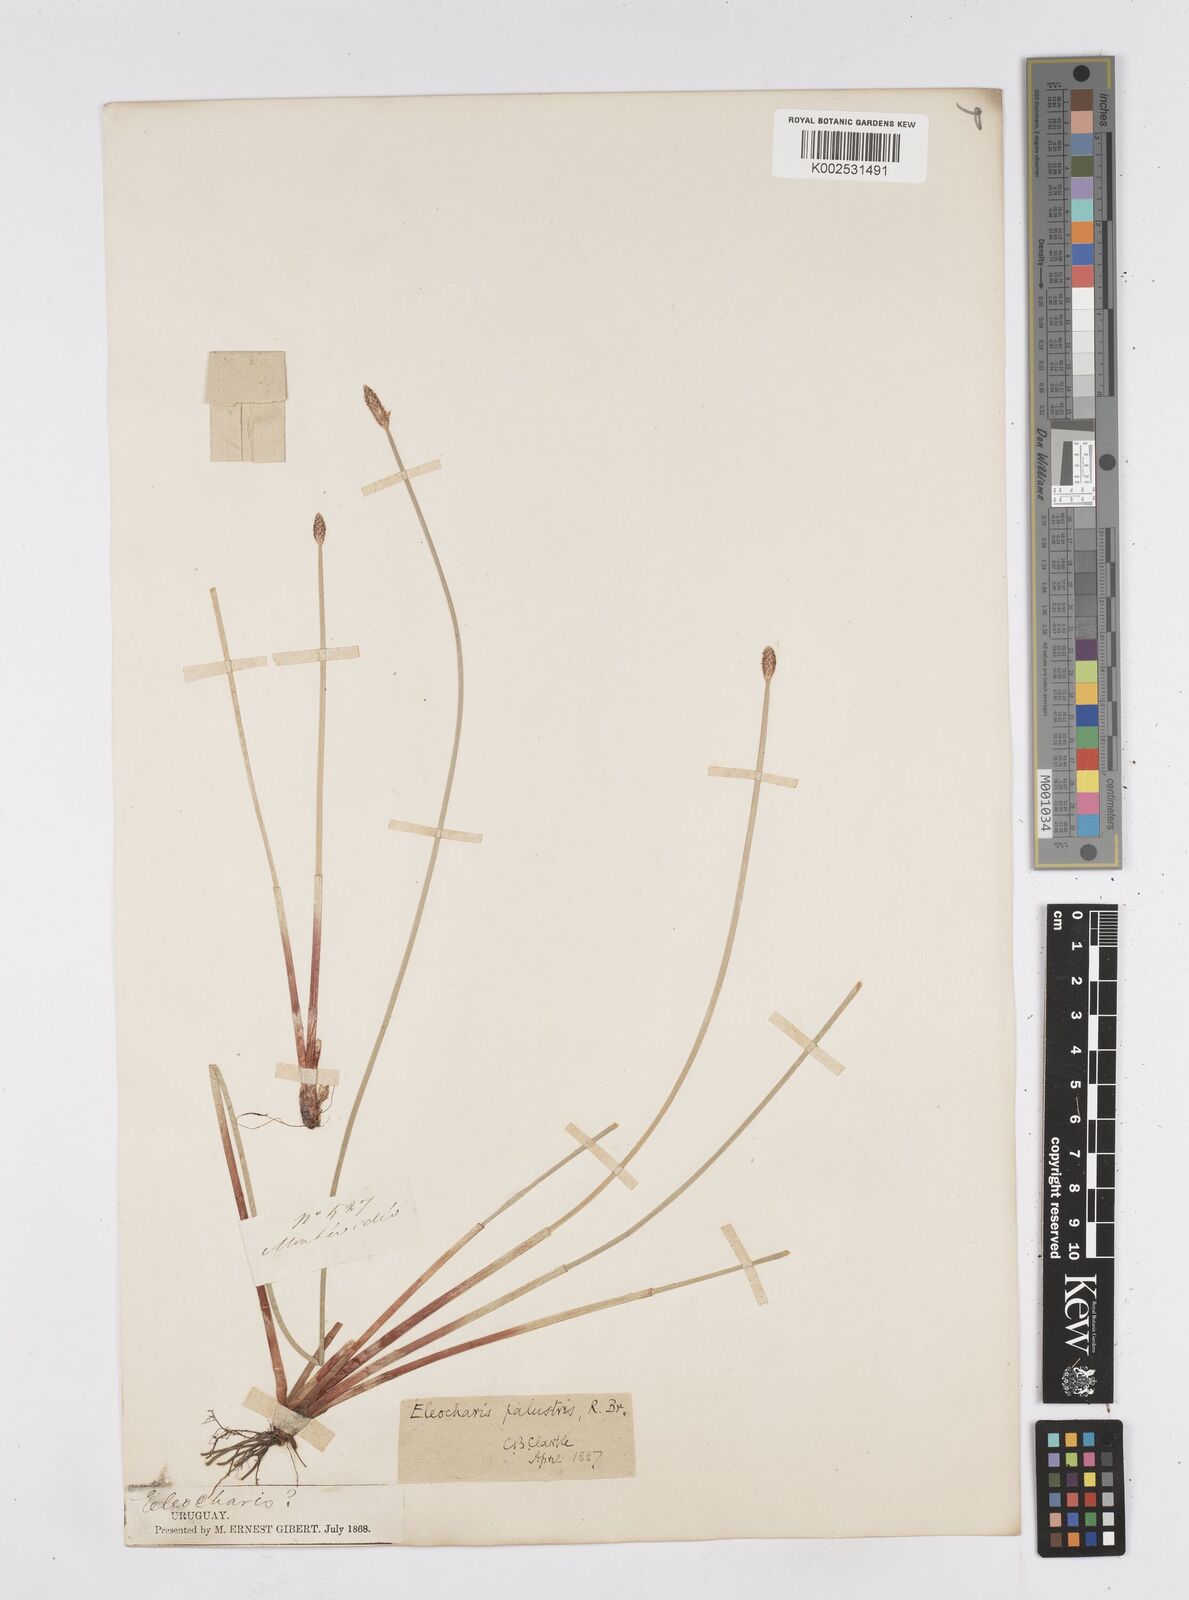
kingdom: Plantae
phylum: Tracheophyta
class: Liliopsida
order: Poales
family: Cyperaceae
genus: Eleocharis
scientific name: Eleocharis palustris
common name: Common spike-rush
